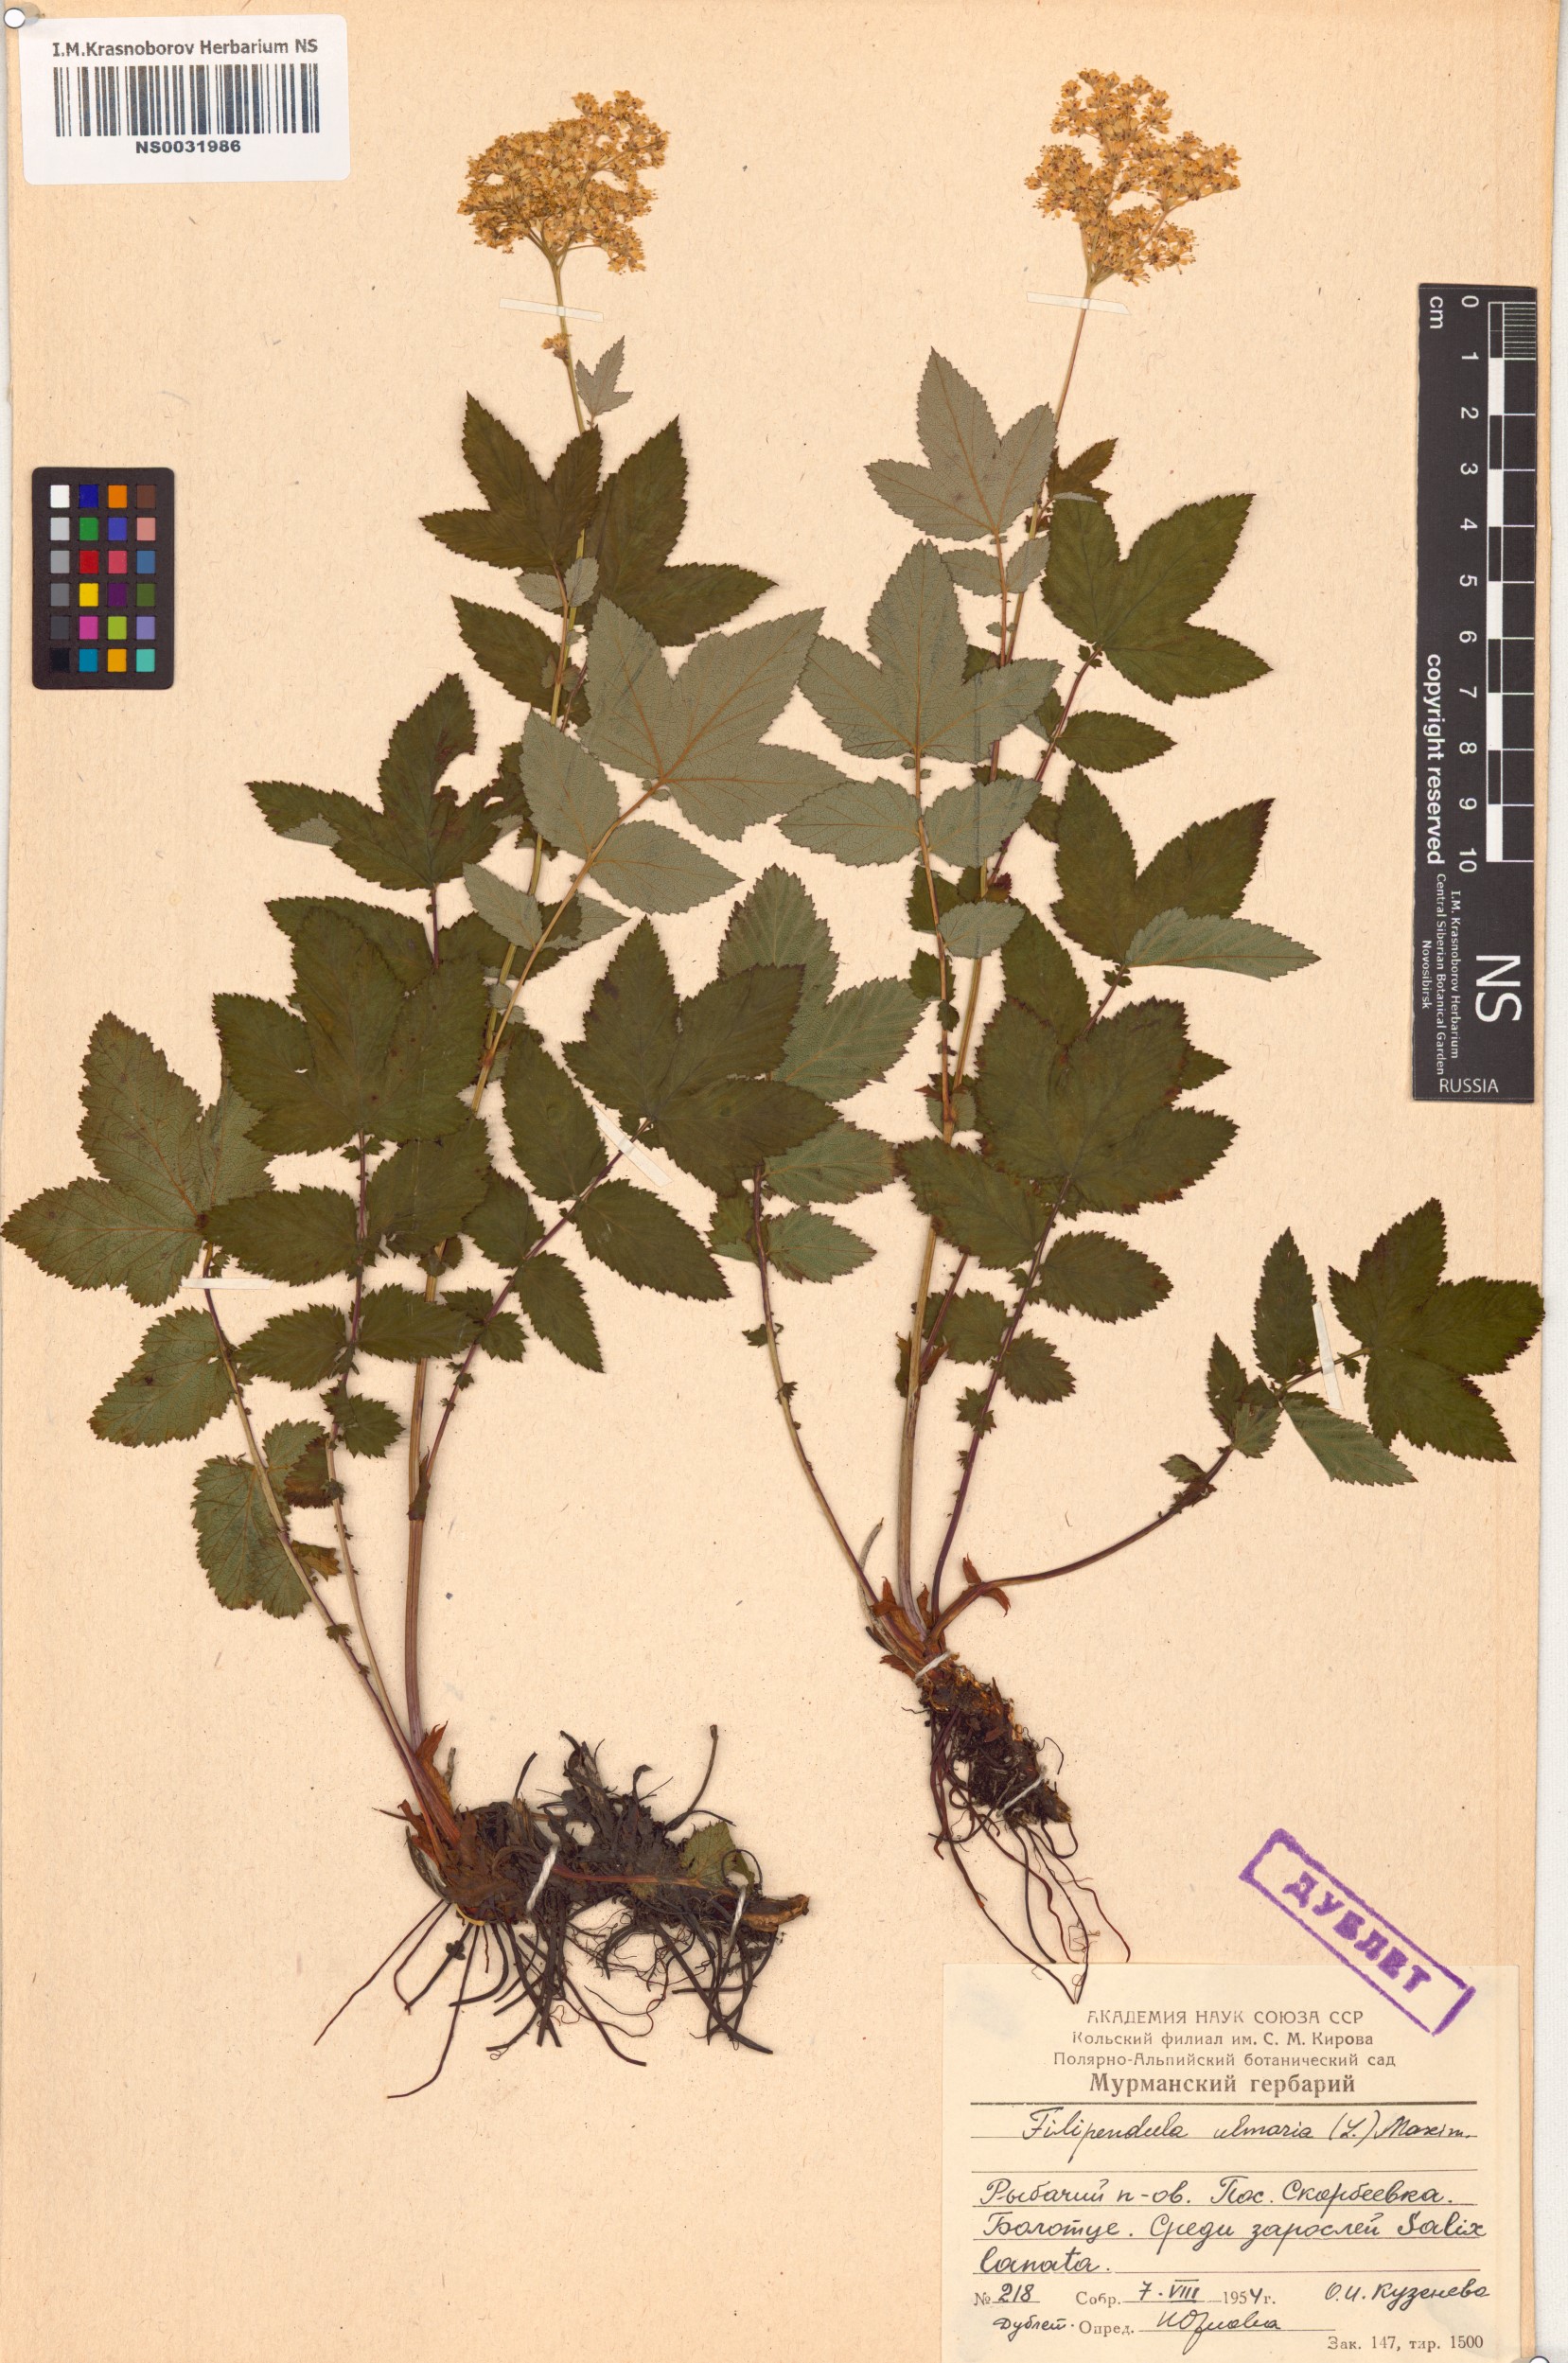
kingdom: Plantae
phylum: Tracheophyta
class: Magnoliopsida
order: Rosales
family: Rosaceae
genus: Filipendula
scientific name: Filipendula ulmaria
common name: Meadowsweet
